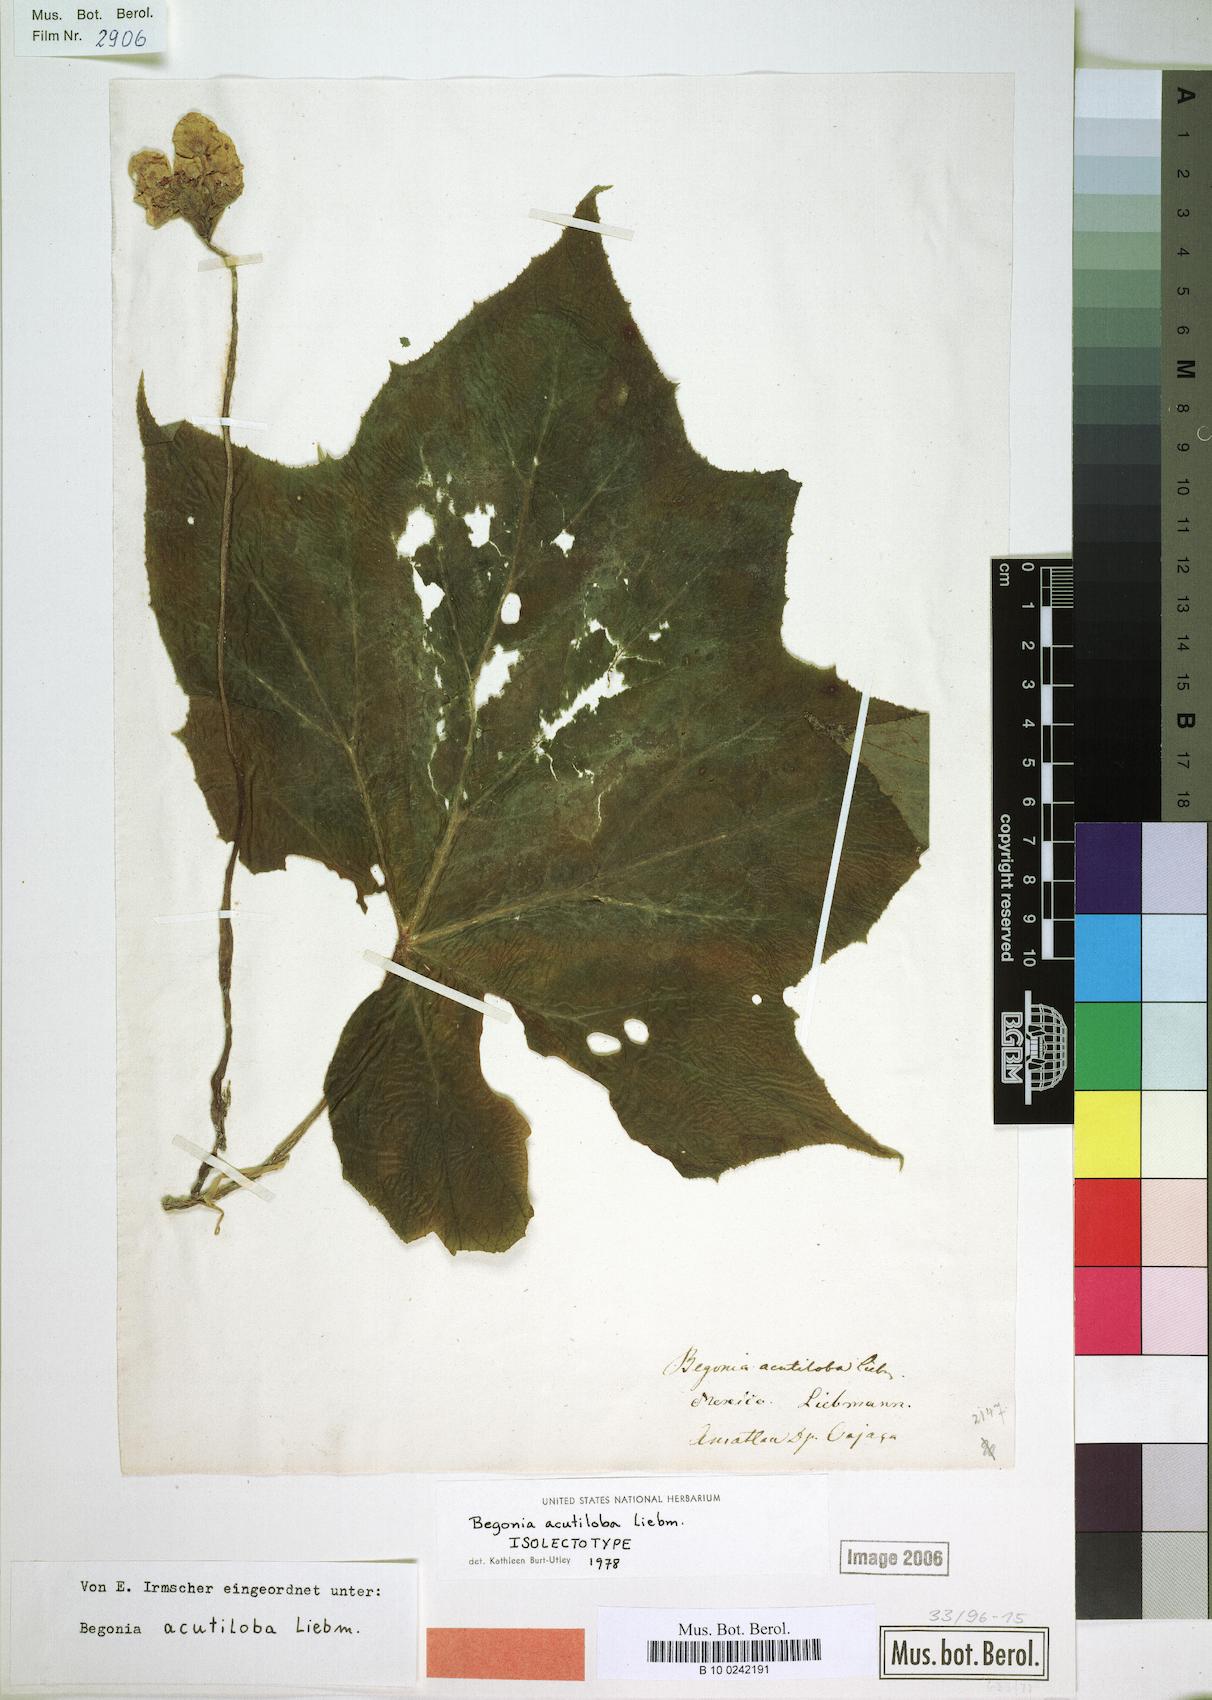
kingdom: Plantae
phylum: Tracheophyta
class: Magnoliopsida
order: Cucurbitales
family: Begoniaceae
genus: Begonia
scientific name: Begonia acutiloba
